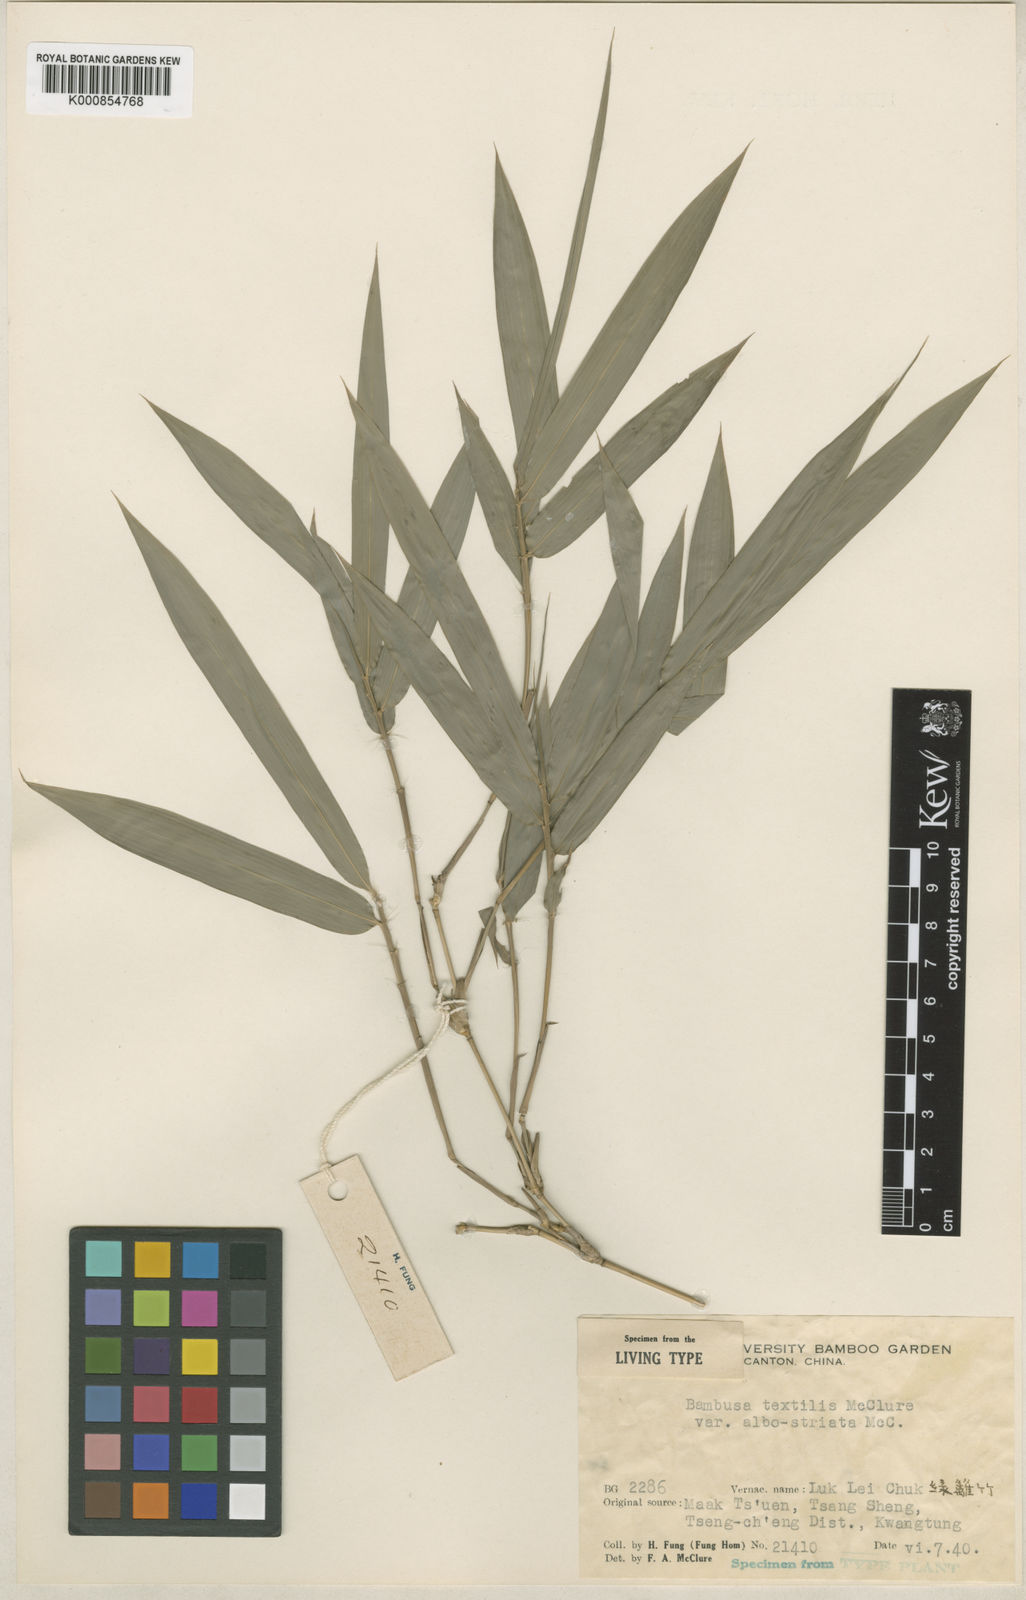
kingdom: Plantae
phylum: Tracheophyta
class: Liliopsida
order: Poales
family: Poaceae
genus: Bambusa
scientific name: Bambusa albolineata
